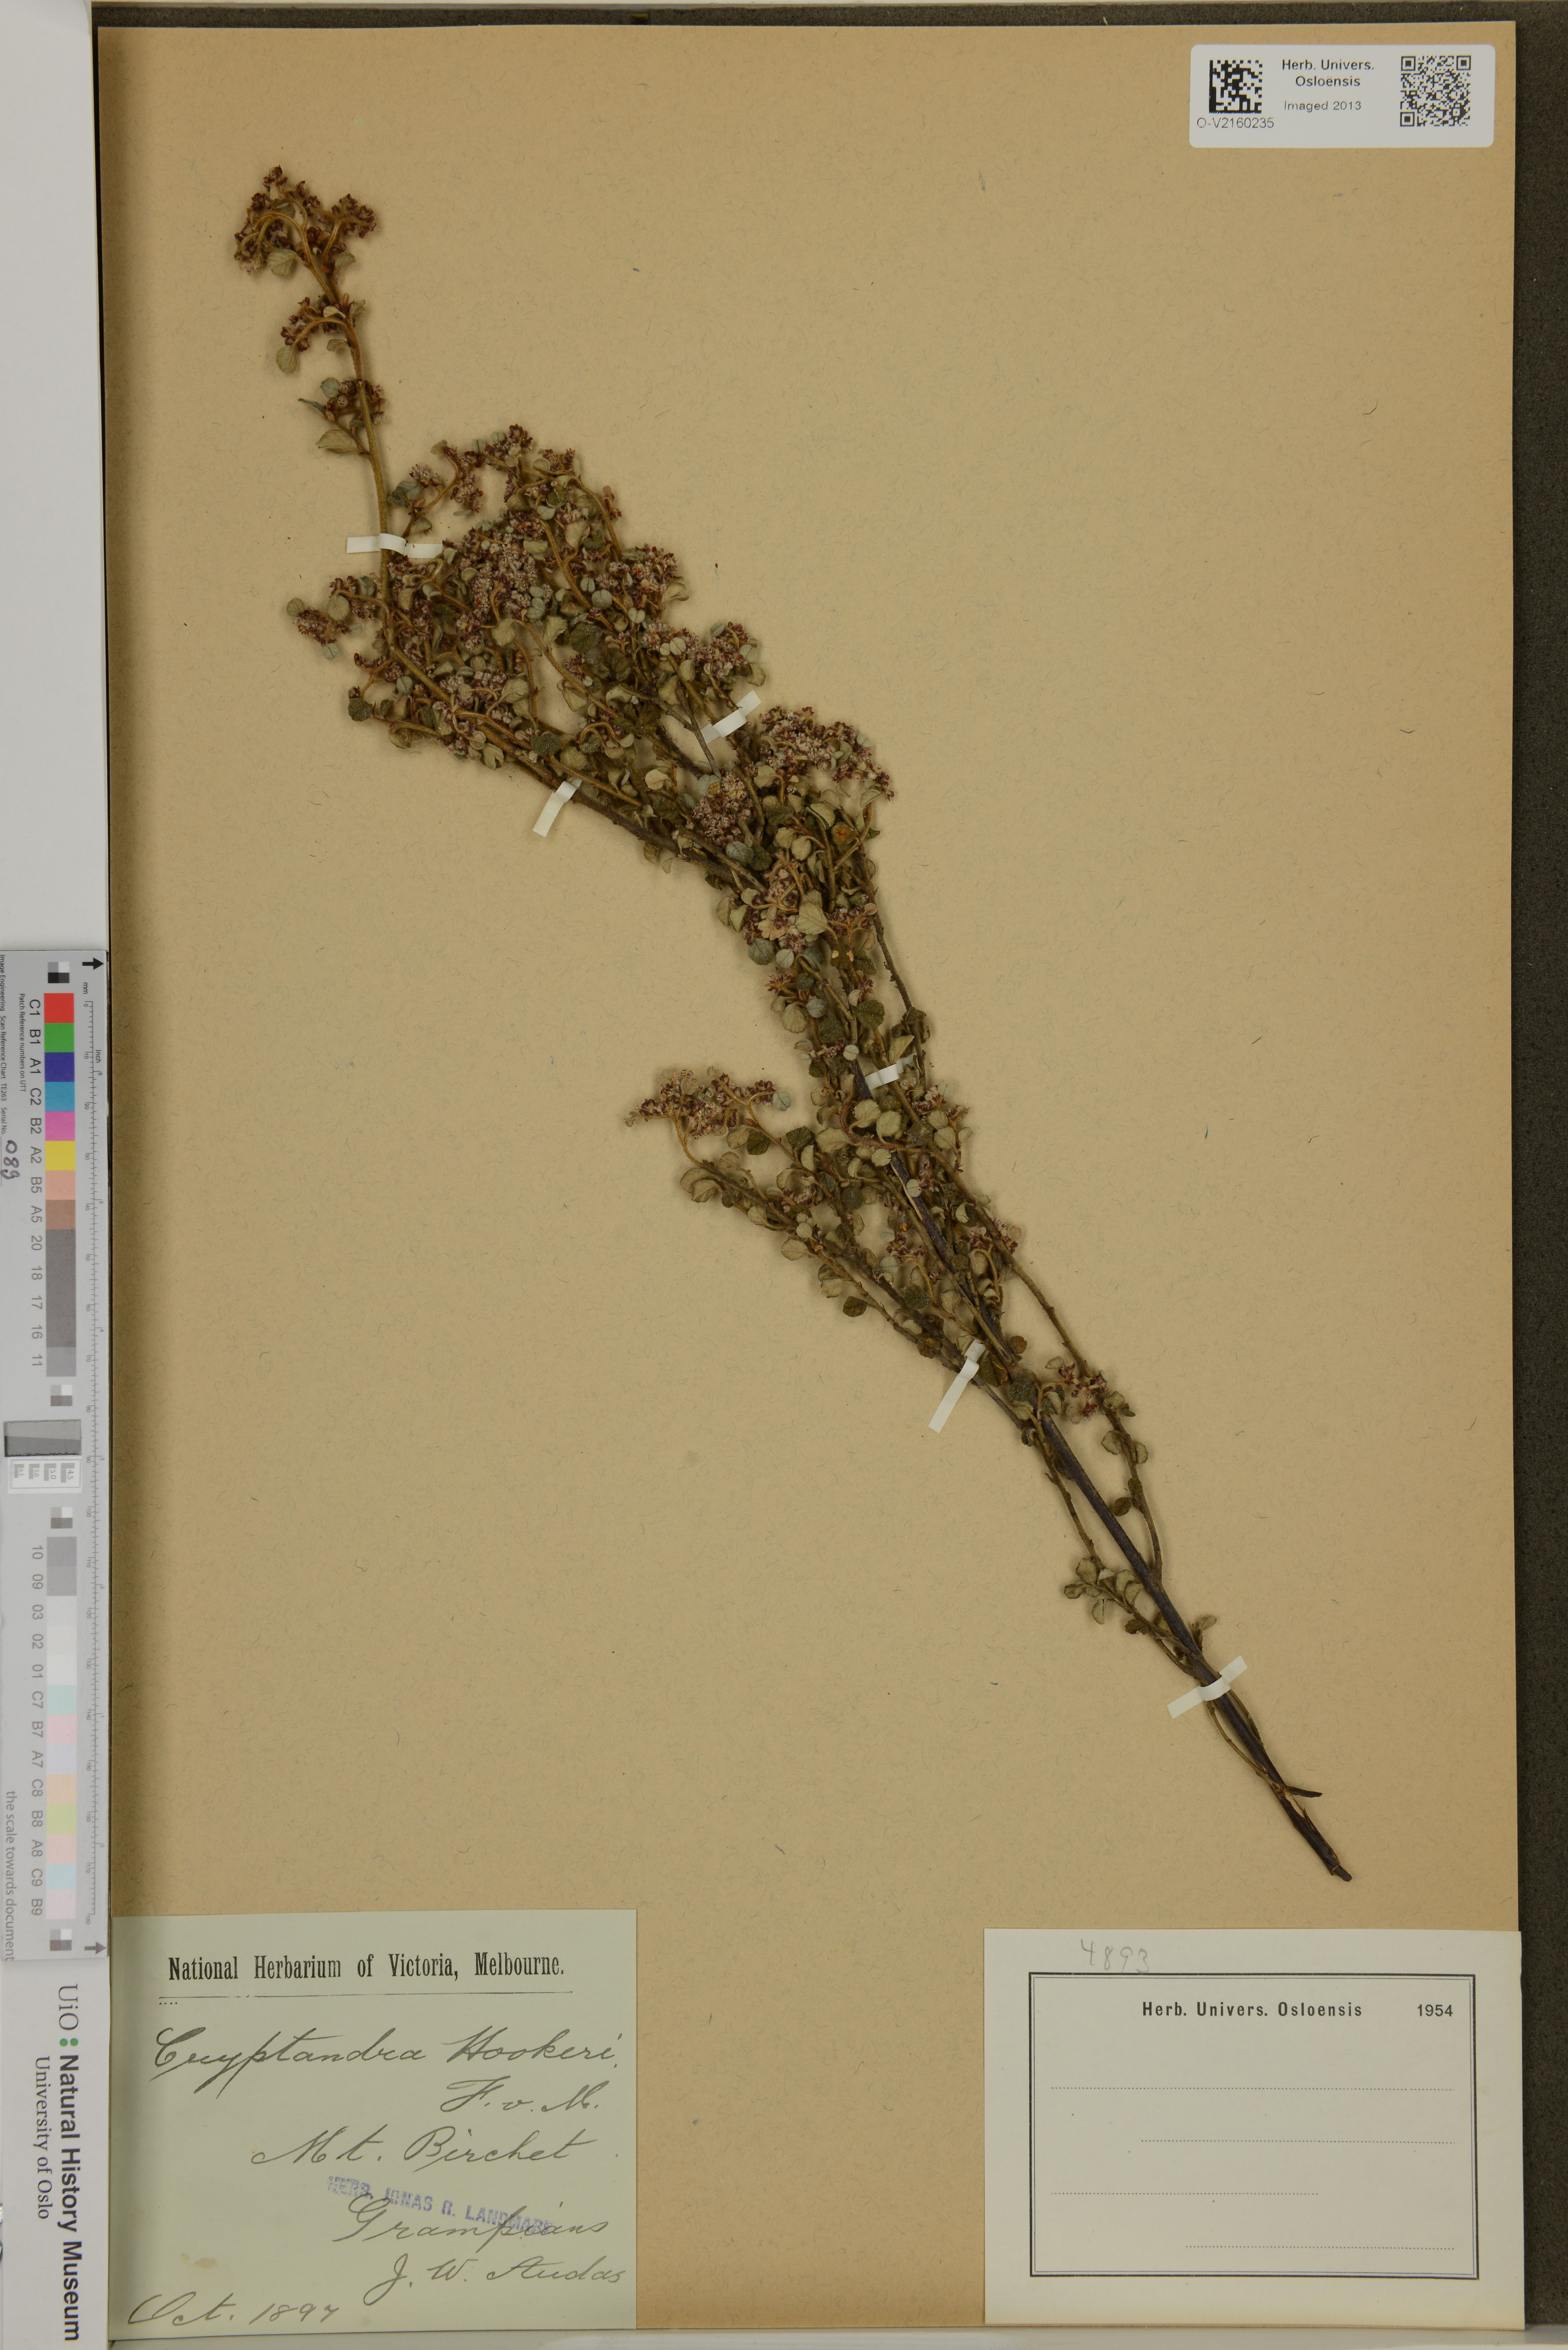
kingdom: Plantae
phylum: Tracheophyta
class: Magnoliopsida
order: Rosales
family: Rhamnaceae
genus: Spyridium
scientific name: Spyridium parvifolium
